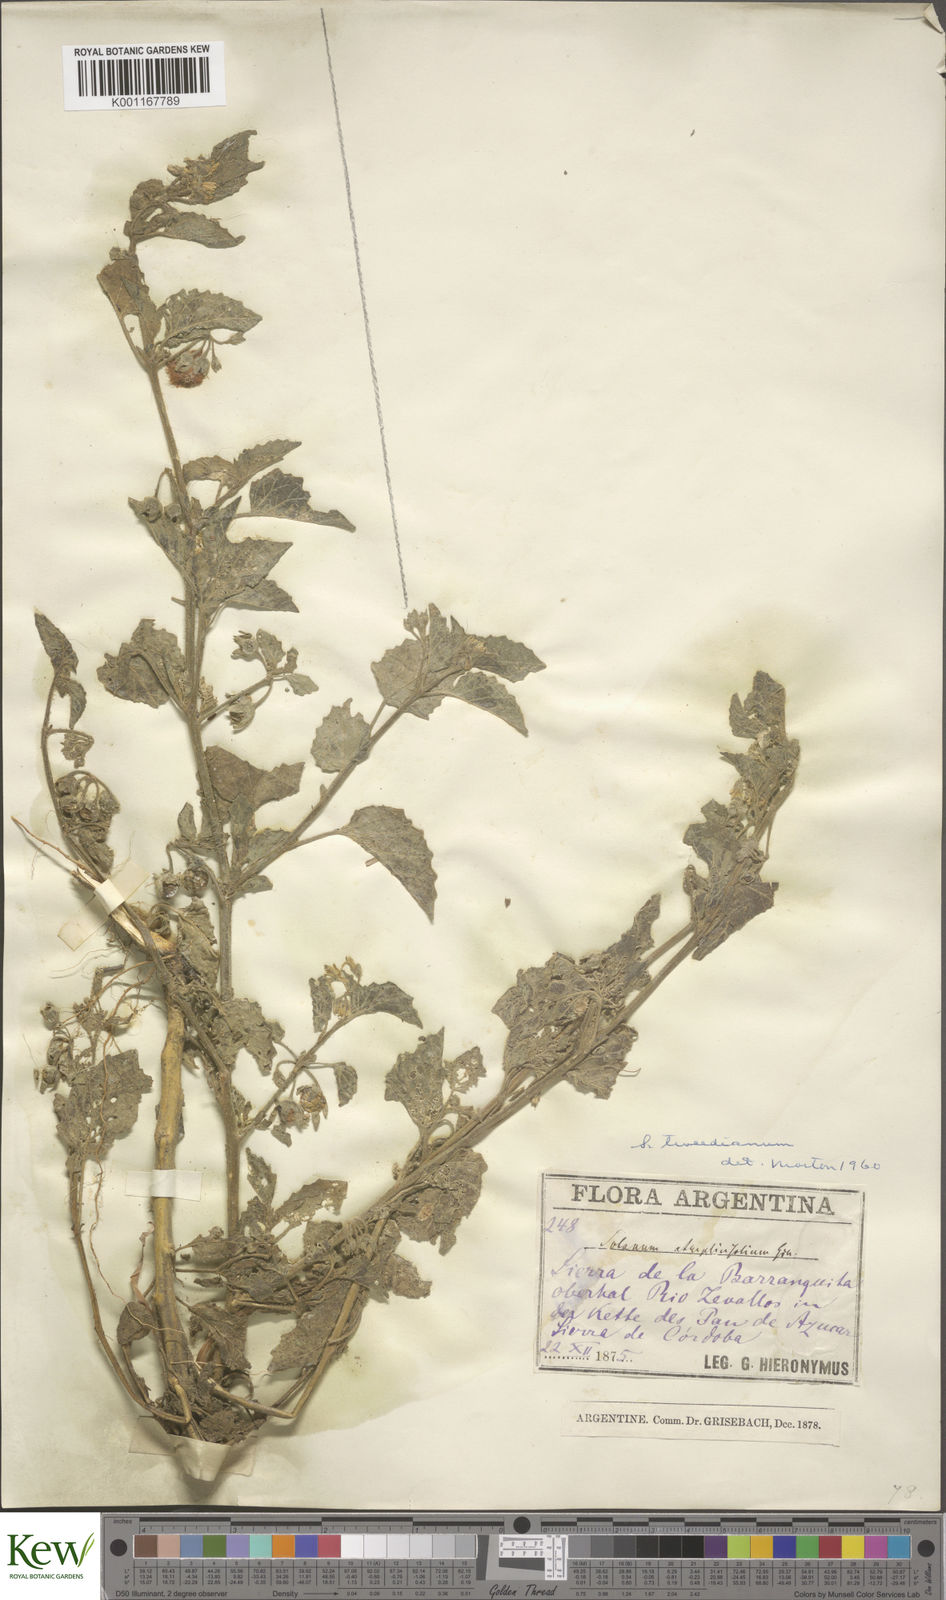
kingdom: Plantae
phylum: Tracheophyta
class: Magnoliopsida
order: Solanales
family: Solanaceae
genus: Solanum
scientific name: Solanum tweedieanum
